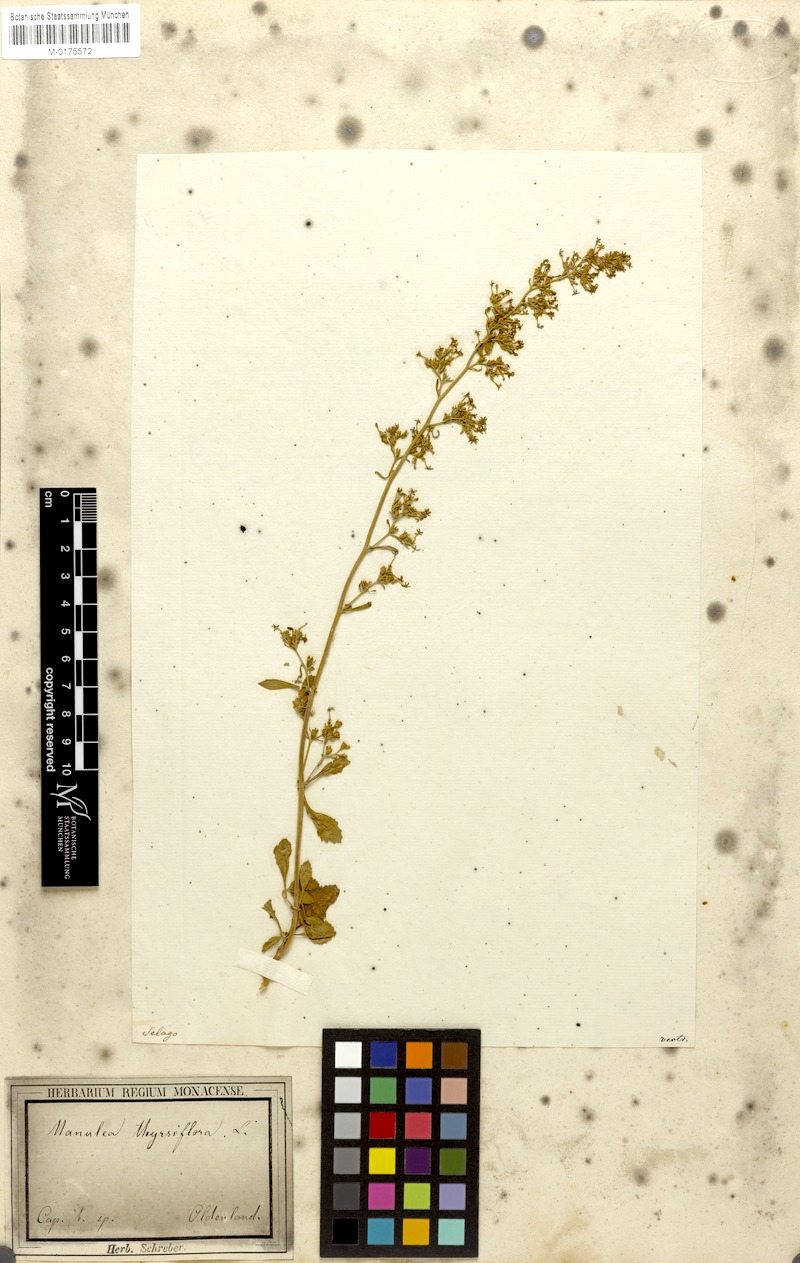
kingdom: Plantae
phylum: Tracheophyta
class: Magnoliopsida
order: Lamiales
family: Scrophulariaceae
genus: Manulea
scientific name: Manulea thysiflora
